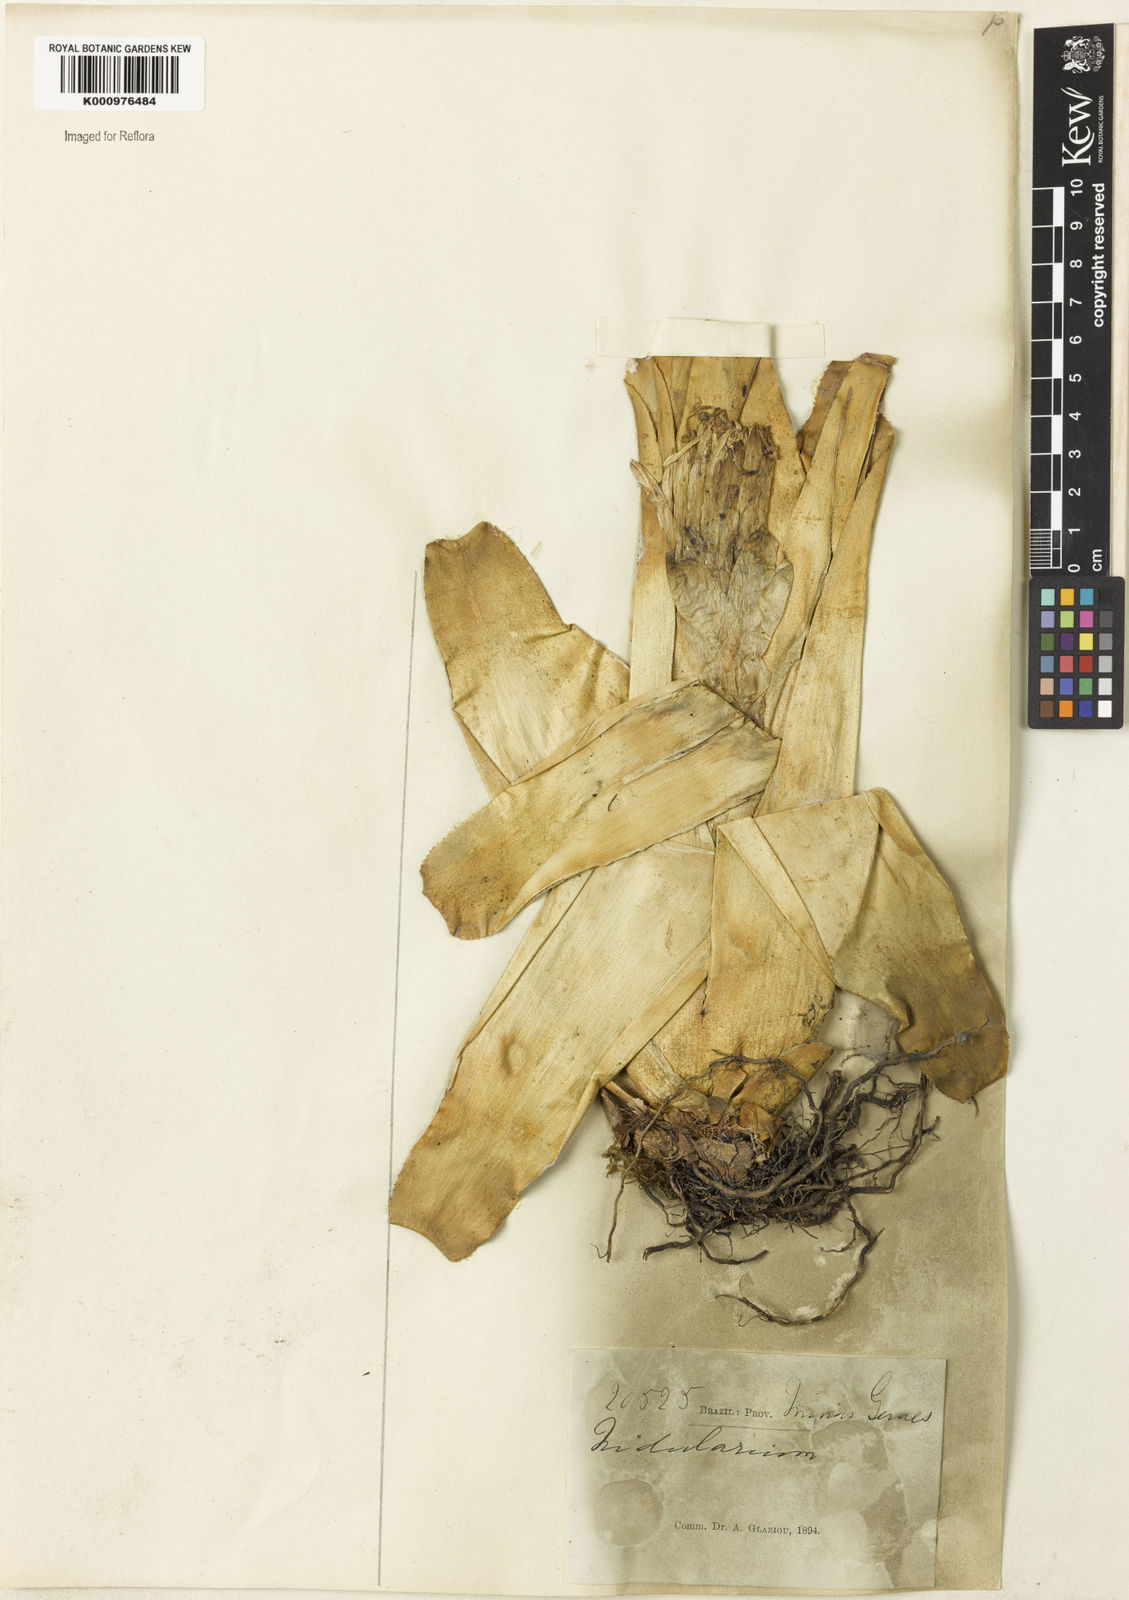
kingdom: Plantae
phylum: Tracheophyta
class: Liliopsida
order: Poales
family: Bromeliaceae
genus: Nidularium
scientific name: Nidularium
